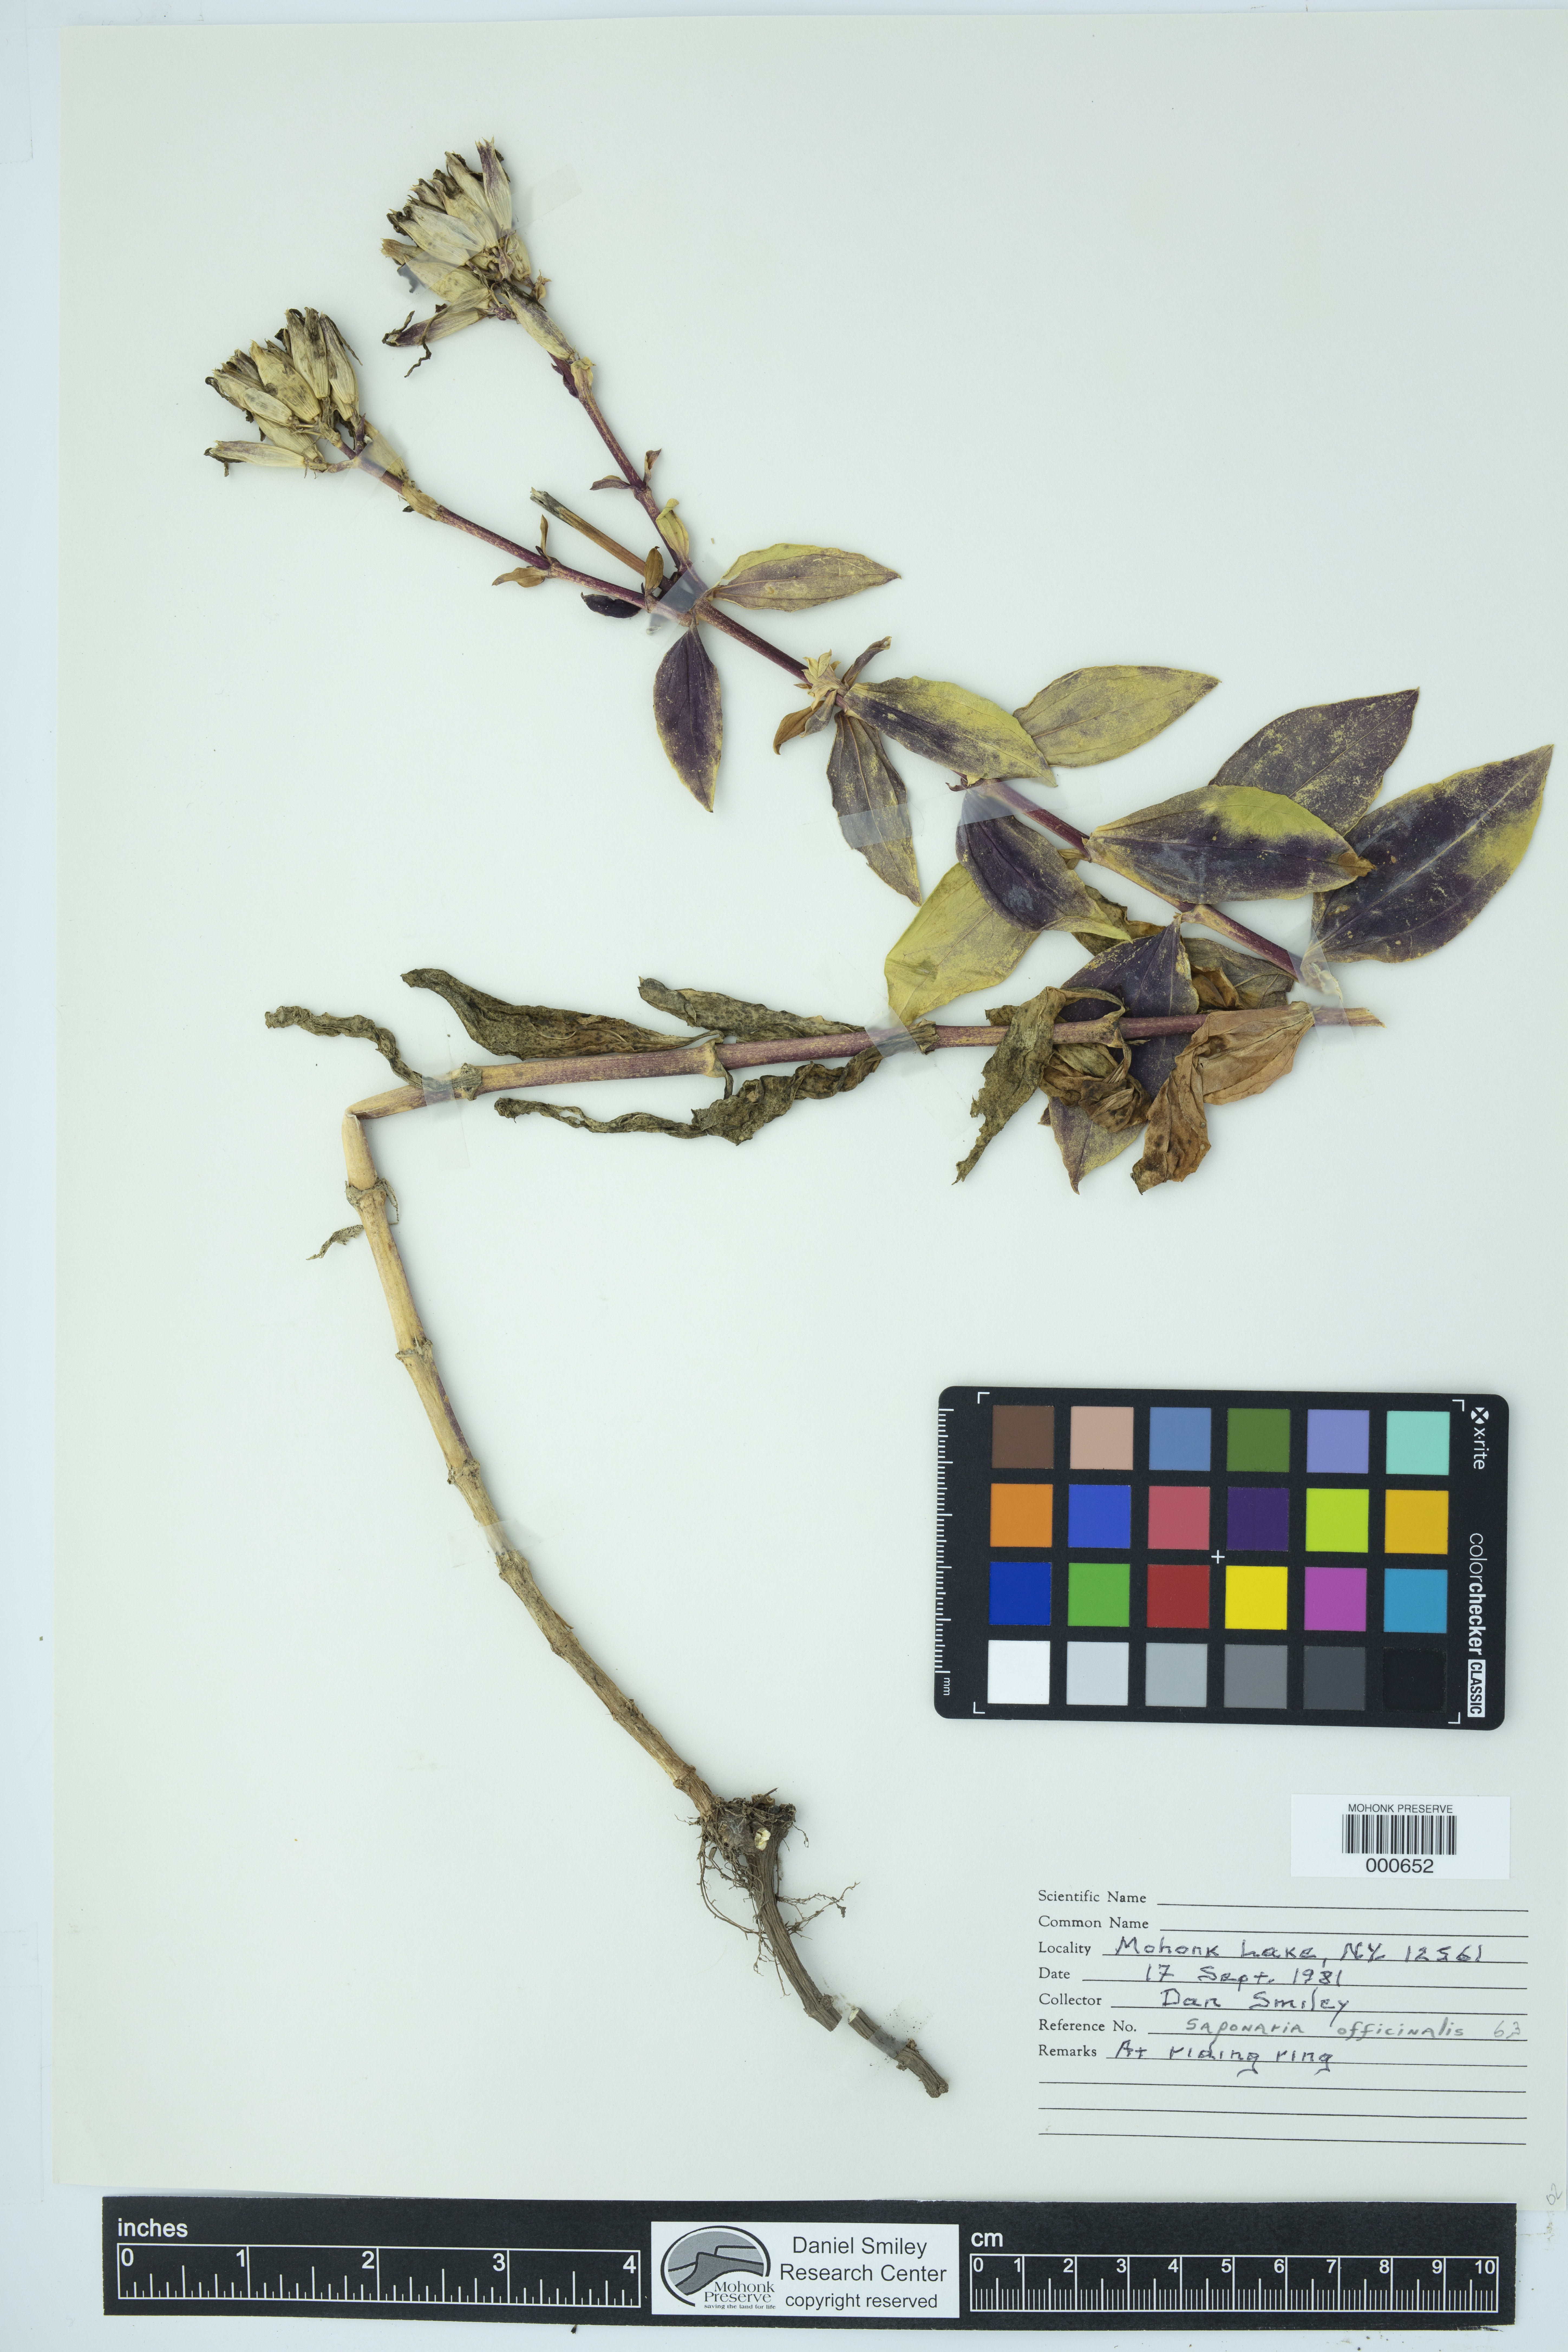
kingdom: Plantae
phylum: Tracheophyta
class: Magnoliopsida
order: Caryophyllales
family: Caryophyllaceae
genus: Saponaria
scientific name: Saponaria officinalis
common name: Soapwort
